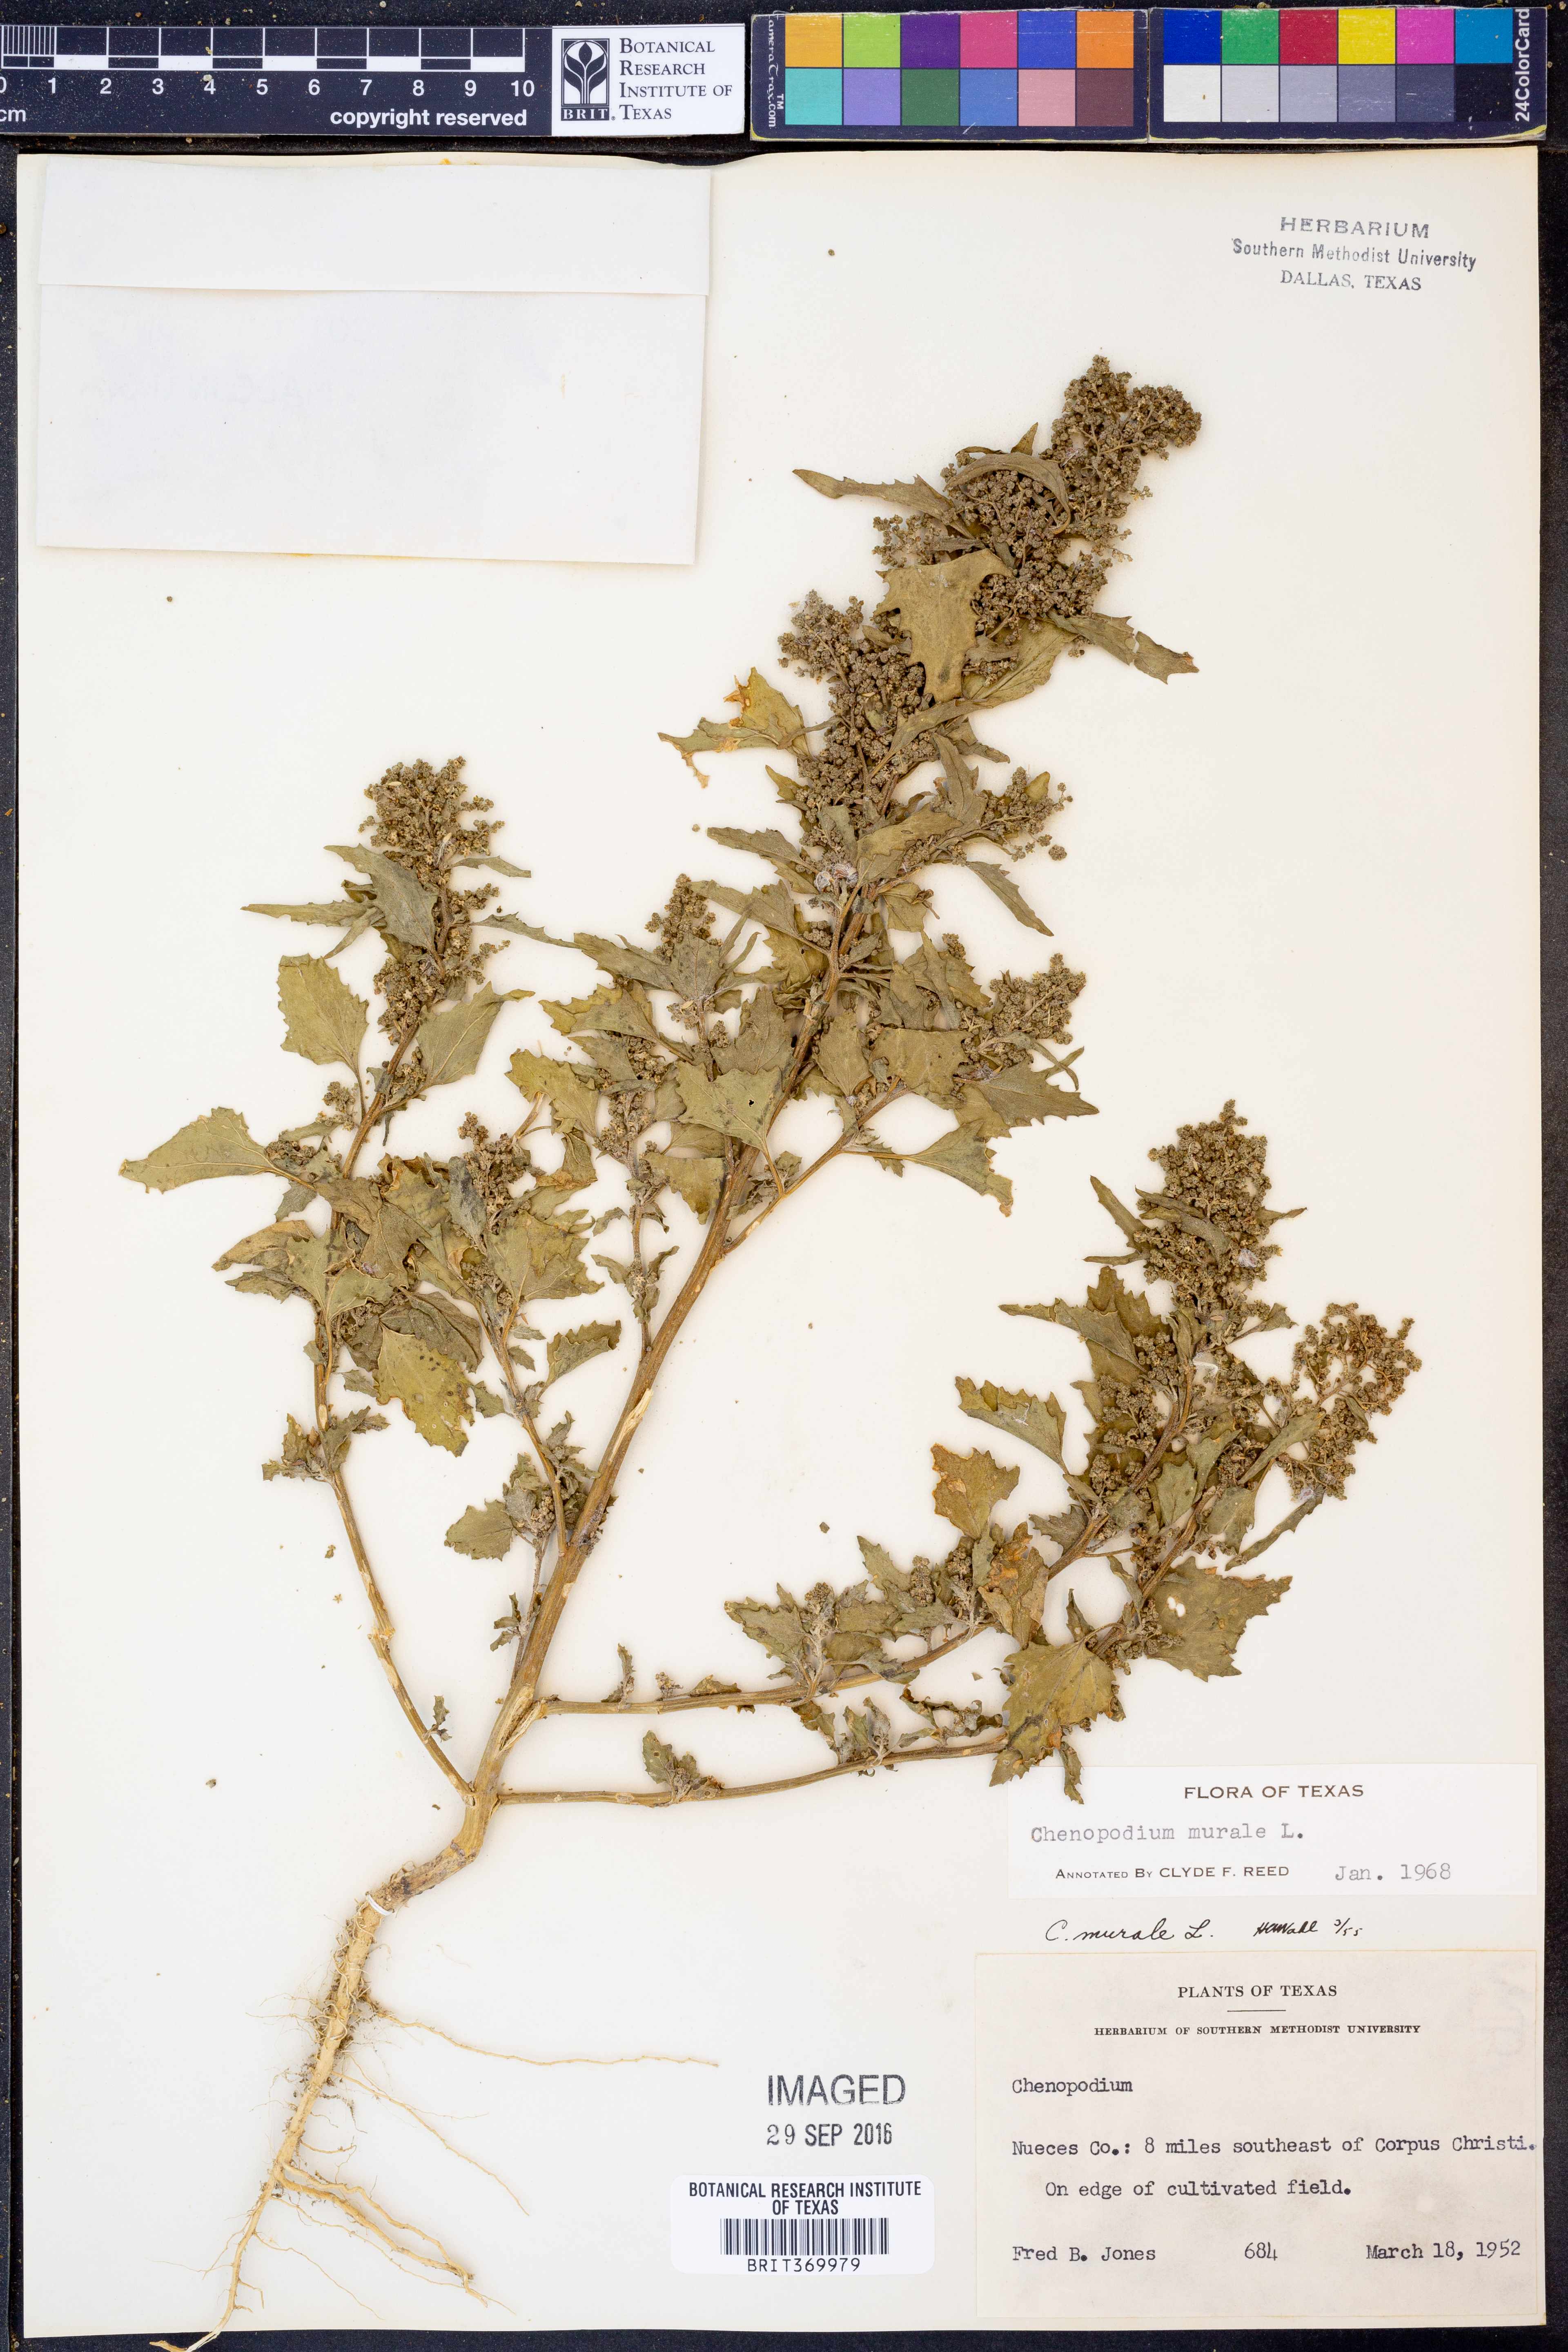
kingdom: Plantae
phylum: Tracheophyta
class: Magnoliopsida
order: Caryophyllales
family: Amaranthaceae
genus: Chenopodiastrum
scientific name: Chenopodiastrum murale
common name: Sowbane
